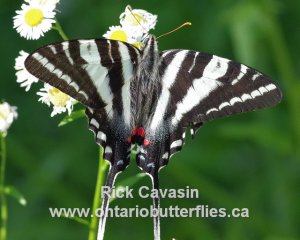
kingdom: Animalia
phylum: Arthropoda
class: Insecta
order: Lepidoptera
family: Papilionidae
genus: Protographium
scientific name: Protographium marcellus
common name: Zebra Swallowtail
